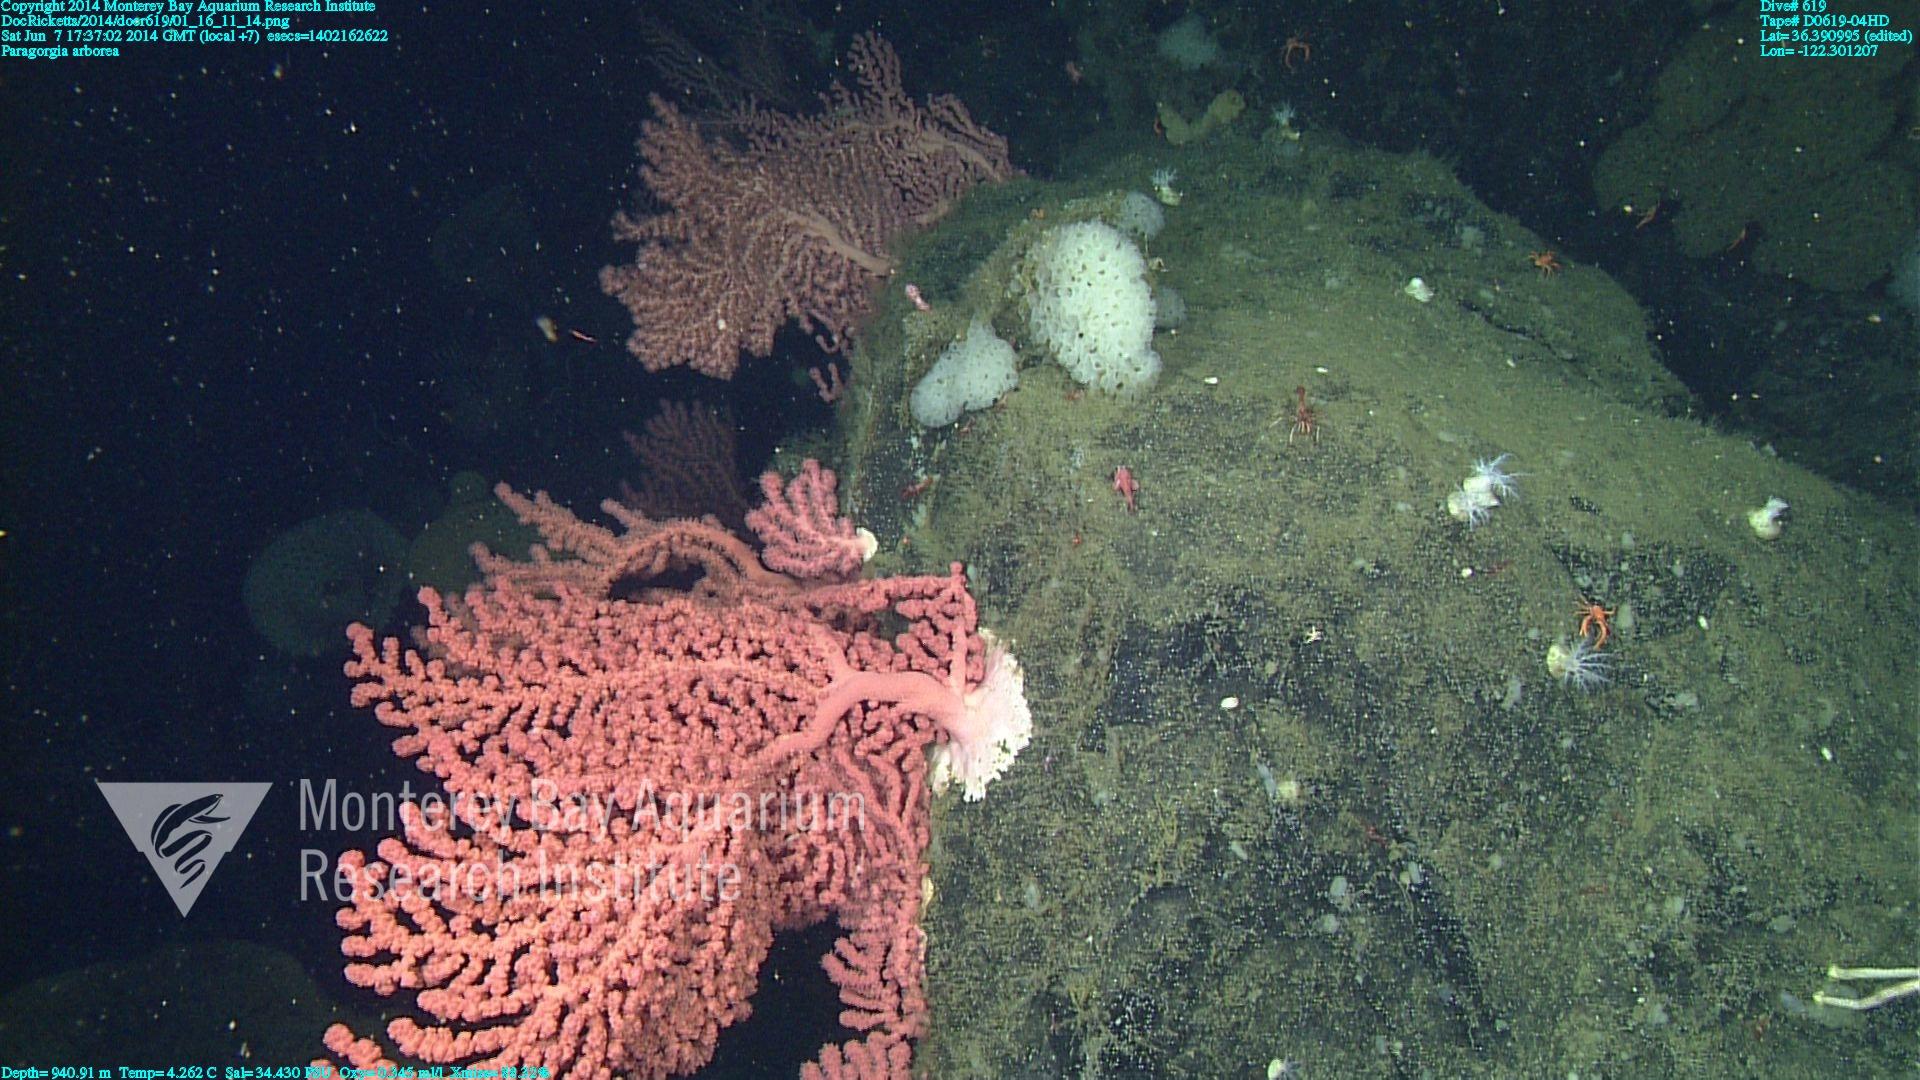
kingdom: Animalia
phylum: Cnidaria
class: Anthozoa
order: Scleralcyonacea
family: Coralliidae
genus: Paragorgia
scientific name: Paragorgia arborea
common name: Bubble gum coral
